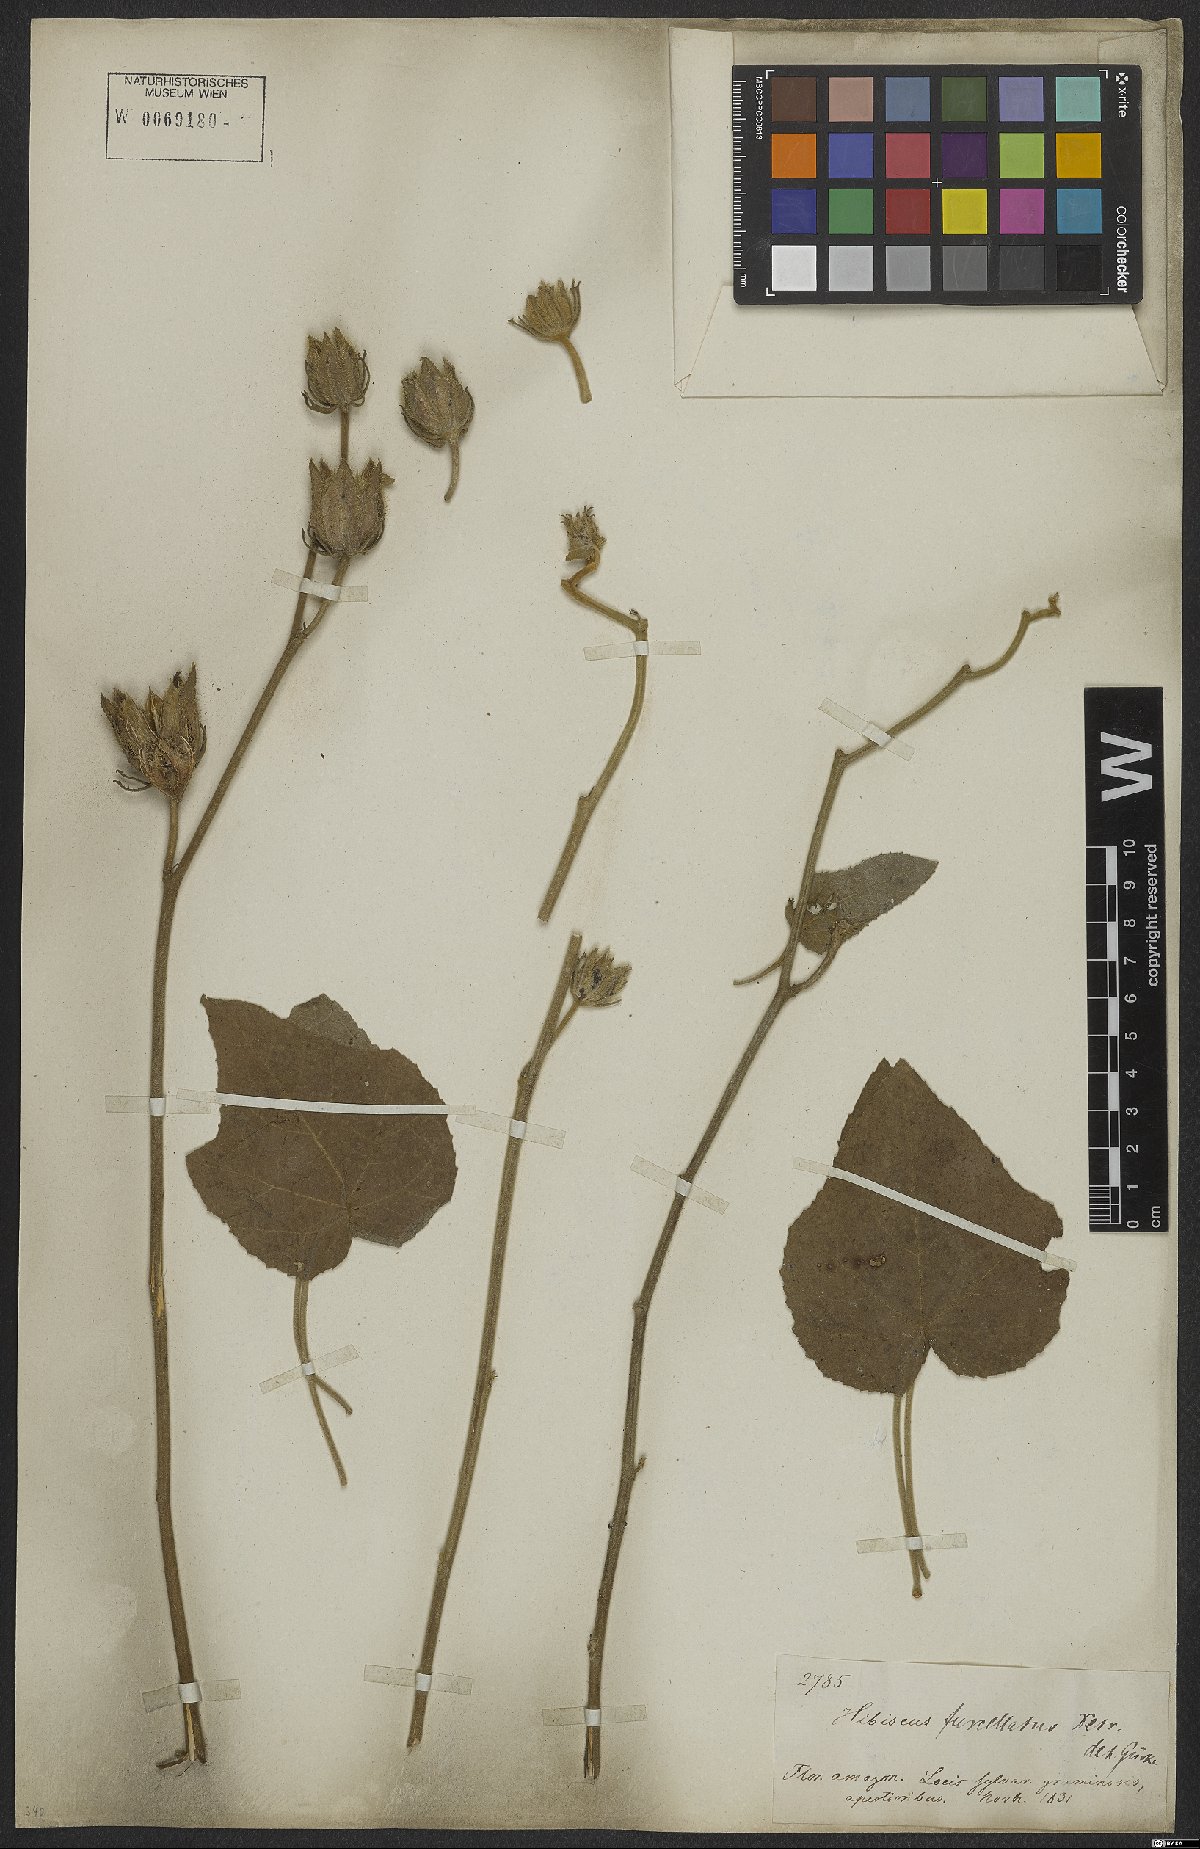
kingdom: Plantae
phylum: Tracheophyta
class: Magnoliopsida
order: Malvales
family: Malvaceae
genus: Hibiscus
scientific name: Hibiscus furcellatus
